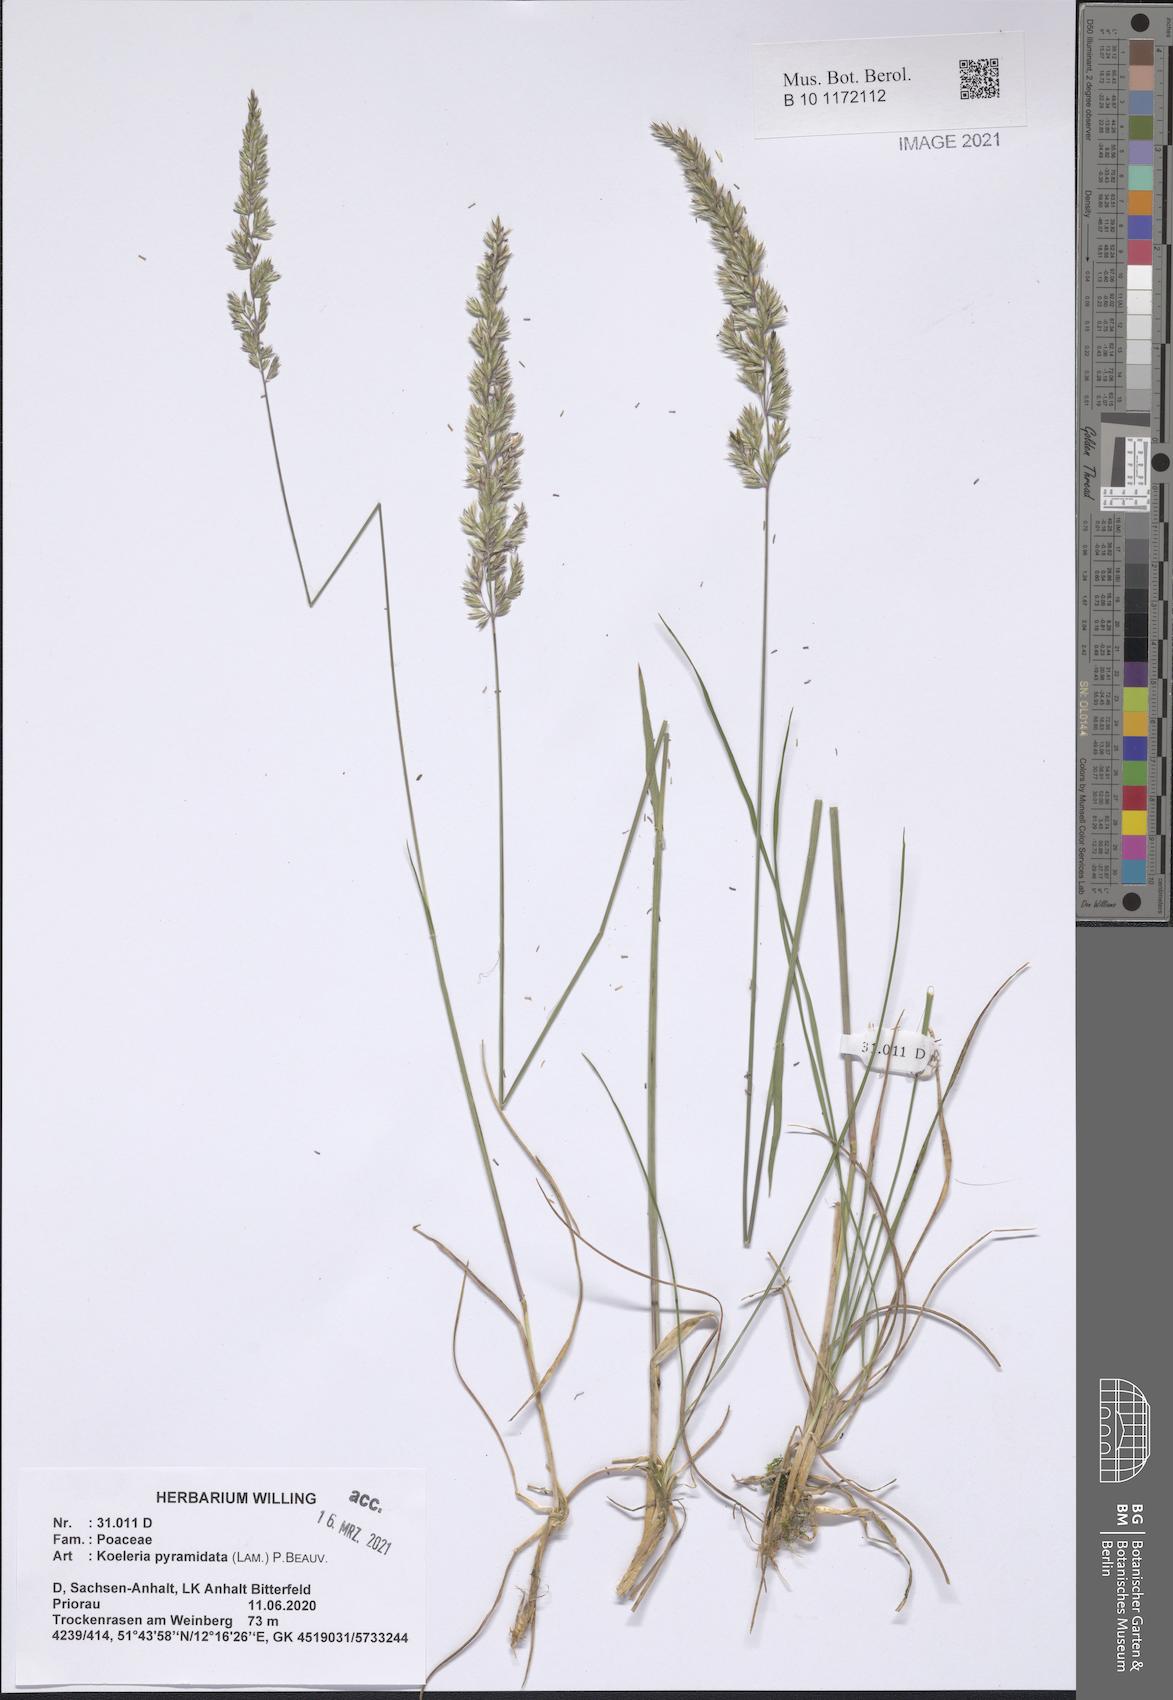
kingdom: Plantae
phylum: Tracheophyta
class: Liliopsida
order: Poales
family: Poaceae
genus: Koeleria
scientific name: Koeleria pyramidata
